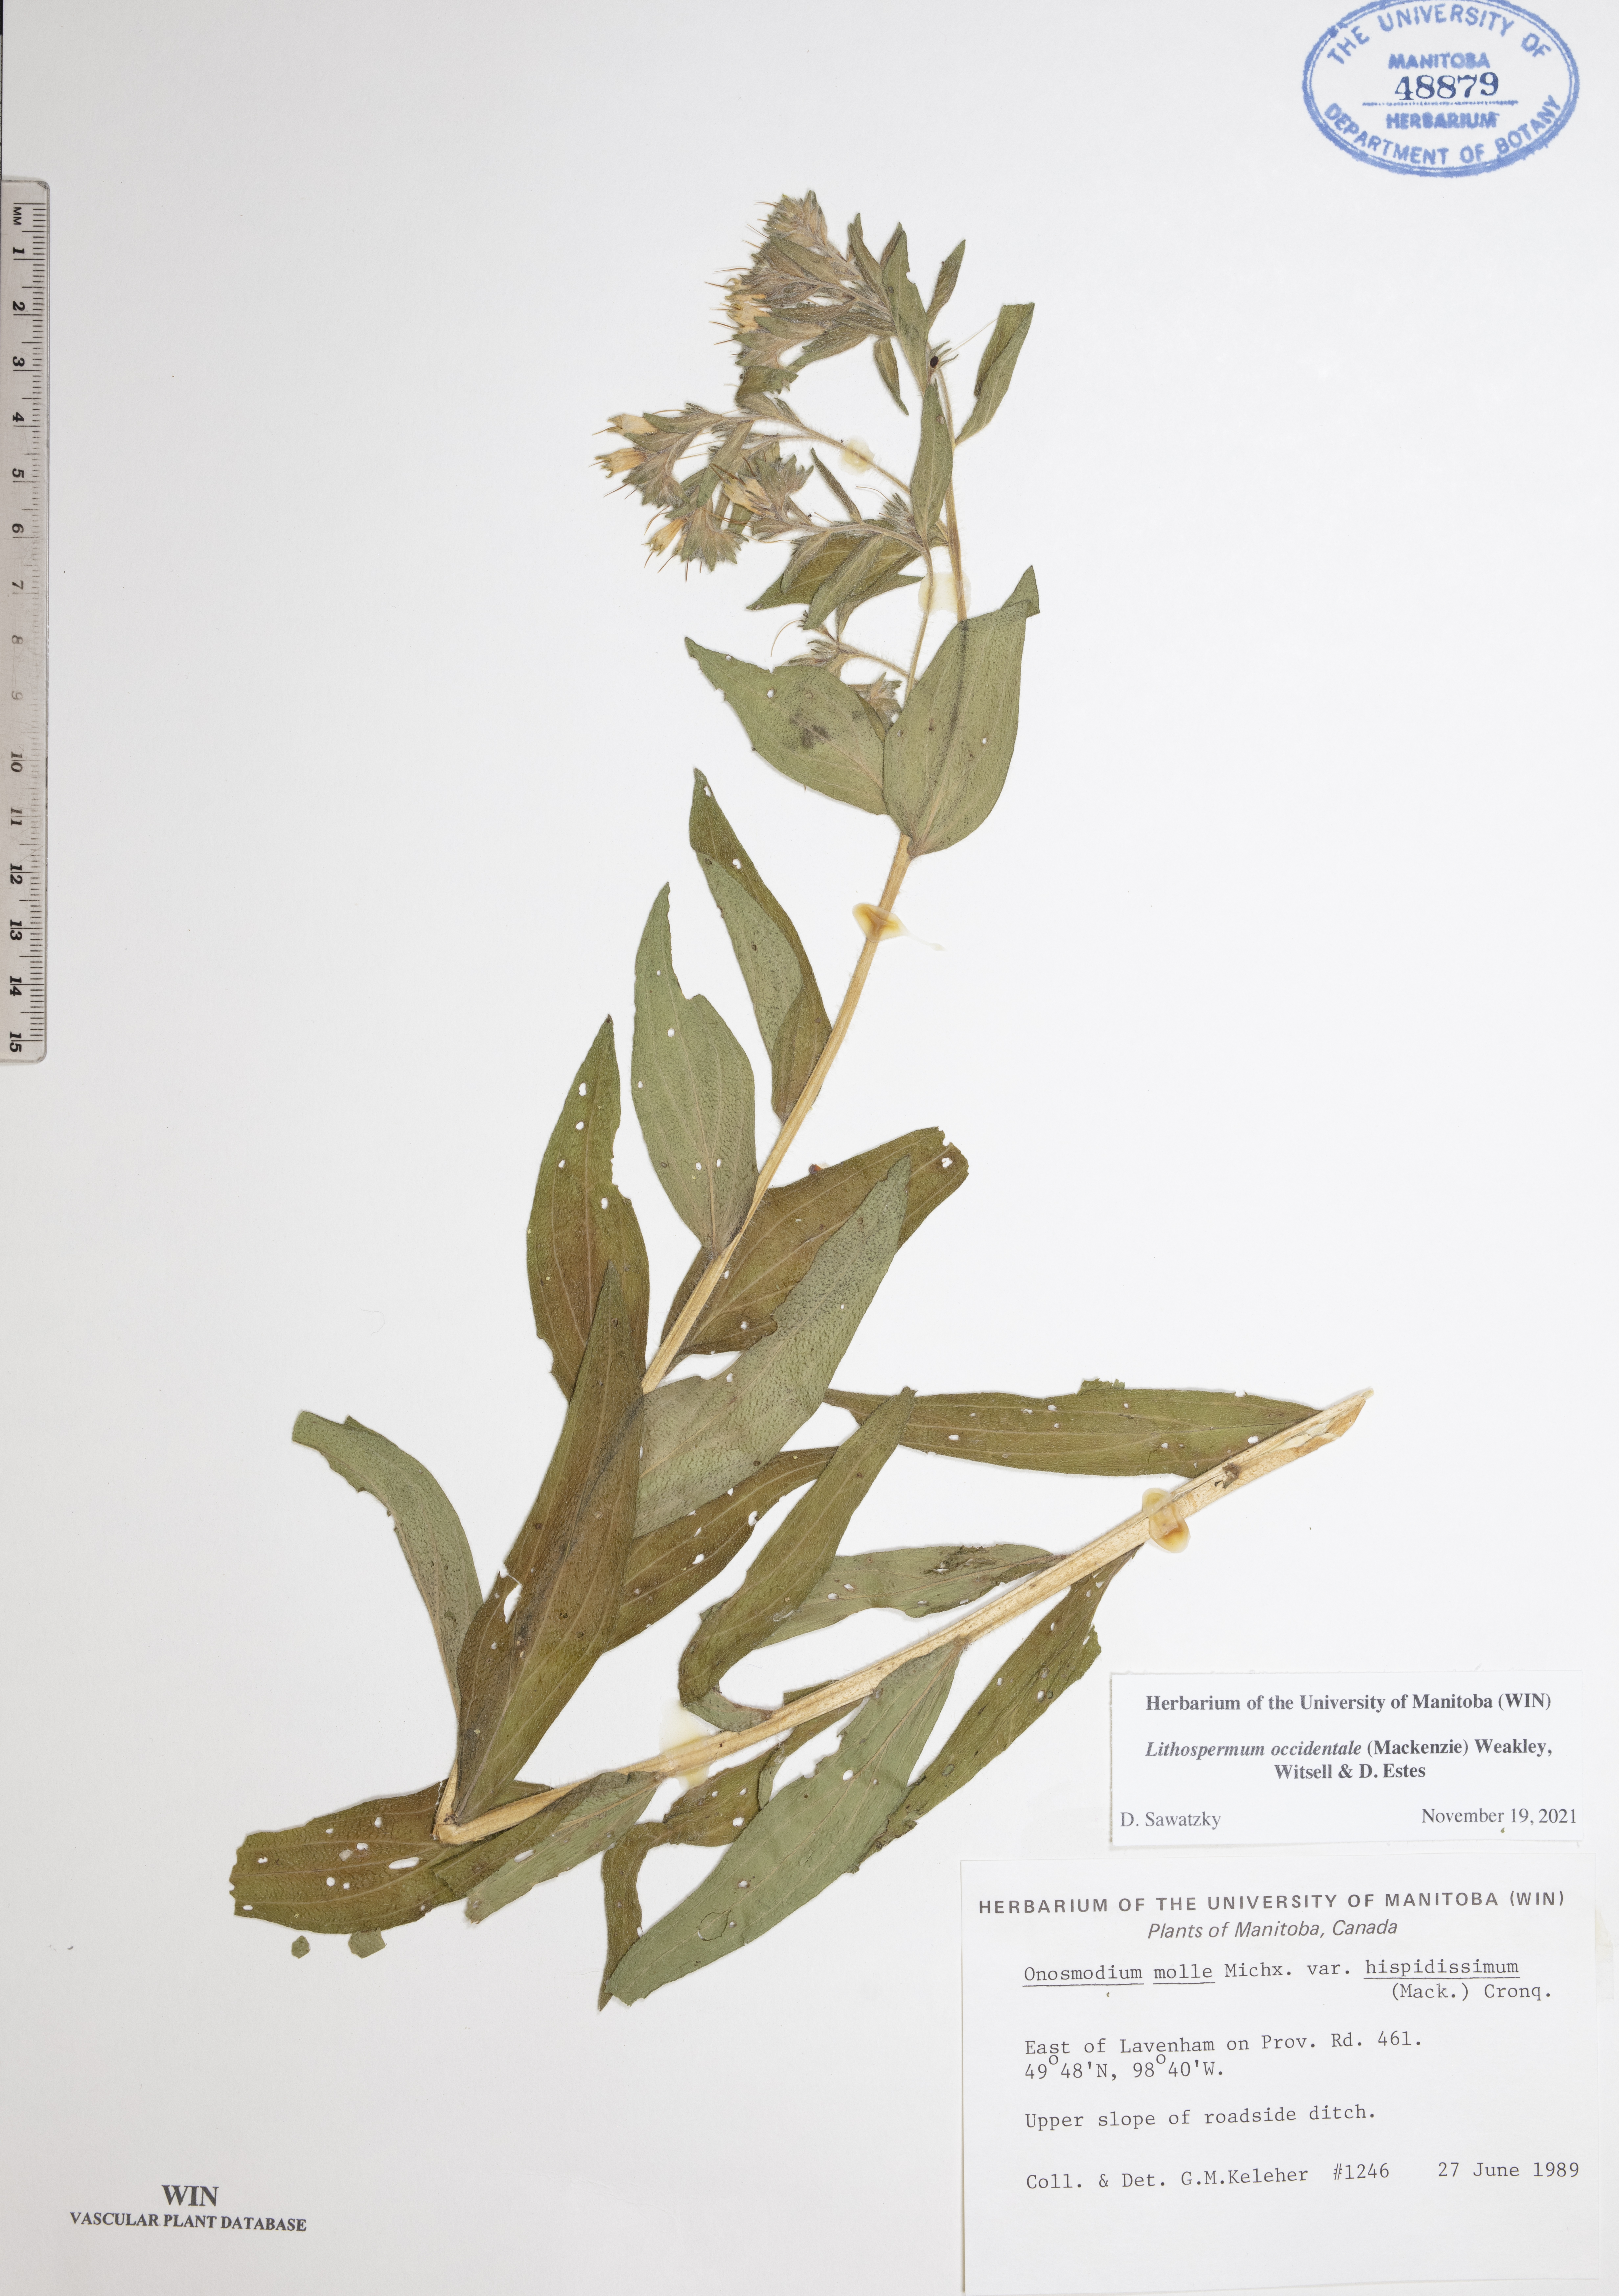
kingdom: Plantae
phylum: Tracheophyta
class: Magnoliopsida
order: Boraginales
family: Boraginaceae
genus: Lithospermum
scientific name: Lithospermum occidentale
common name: Western false gromwell
